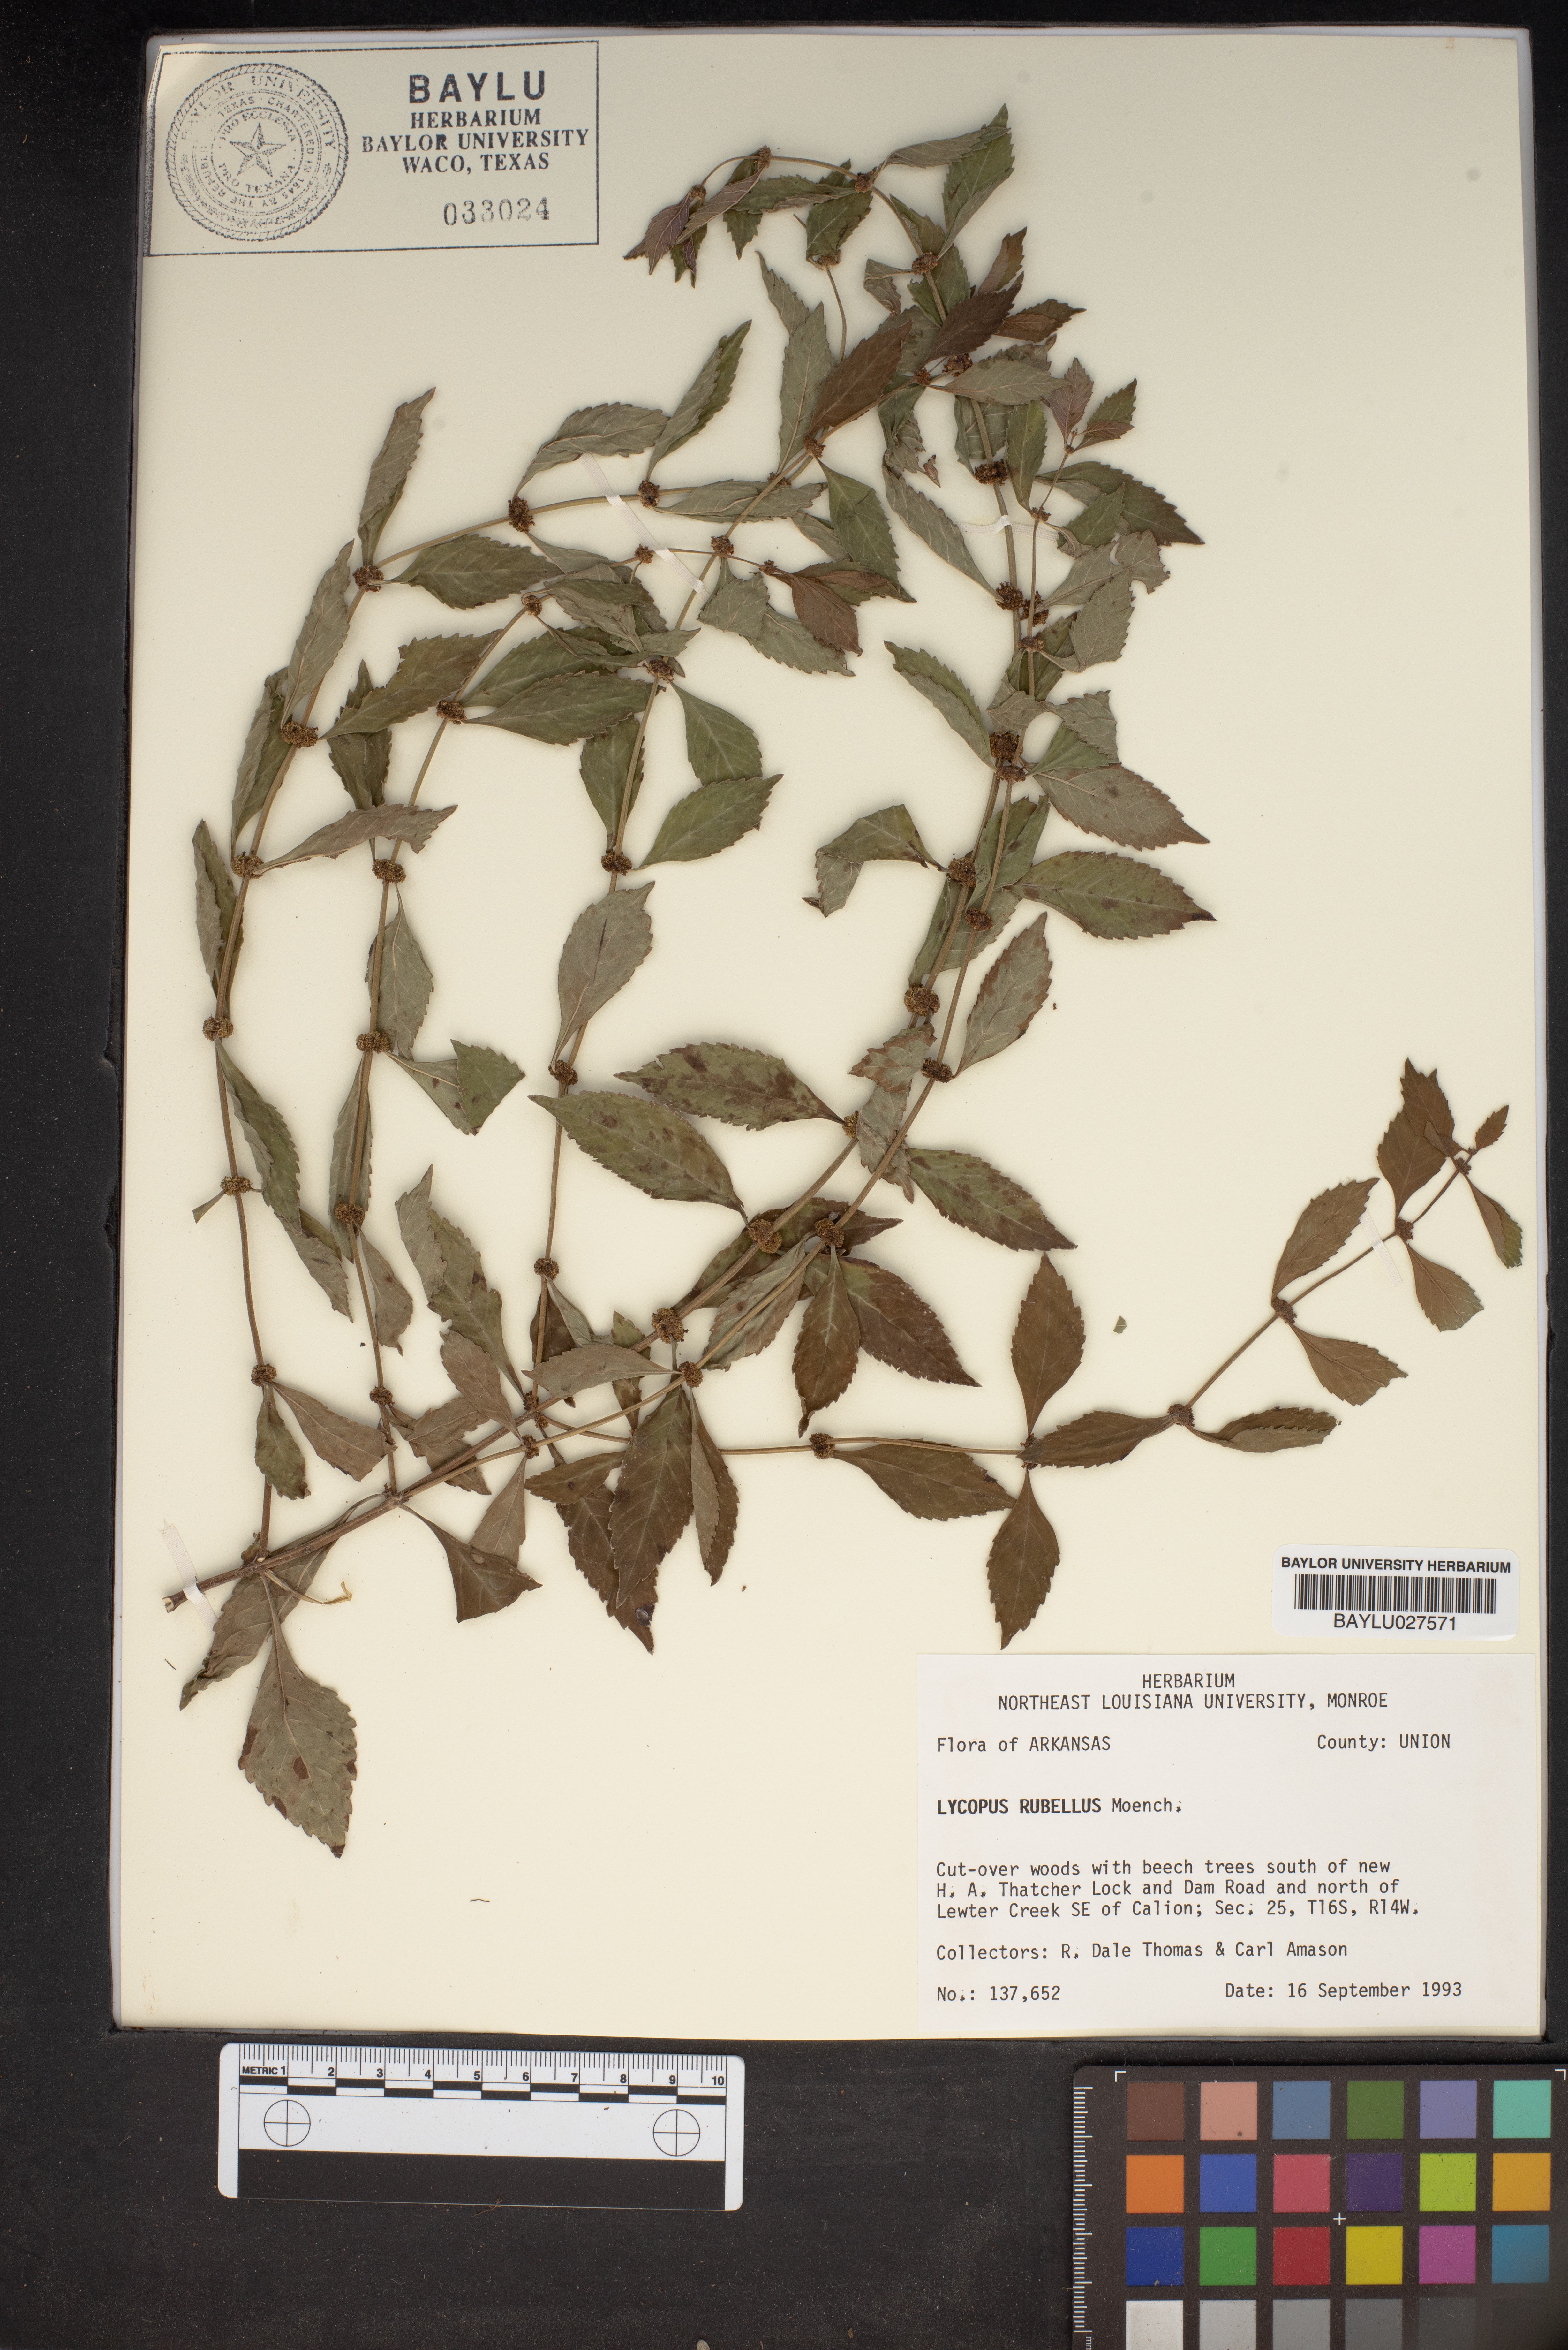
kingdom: Plantae
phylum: Tracheophyta
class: Magnoliopsida
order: Lamiales
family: Lamiaceae
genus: Lycopus
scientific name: Lycopus rubellus
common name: Stalked bugleweed
